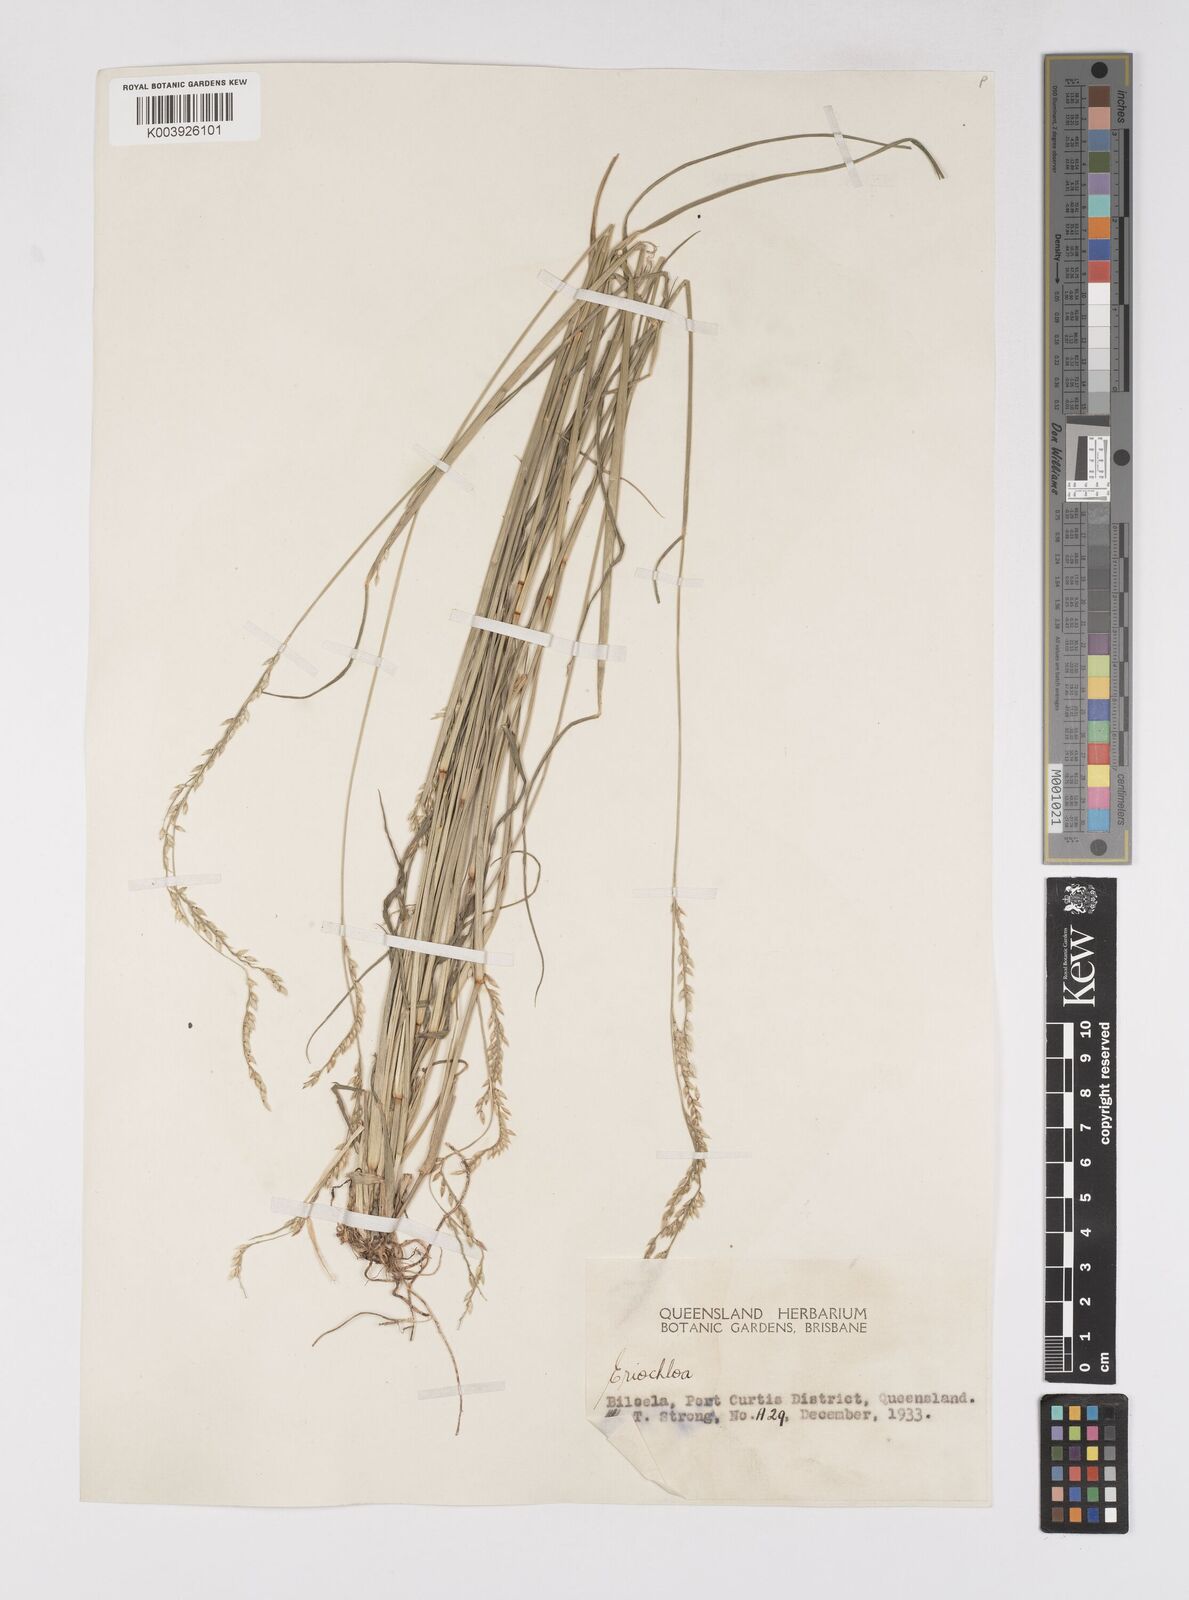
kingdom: Plantae
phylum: Tracheophyta
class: Liliopsida
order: Poales
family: Poaceae
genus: Eriochloa
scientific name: Eriochloa
